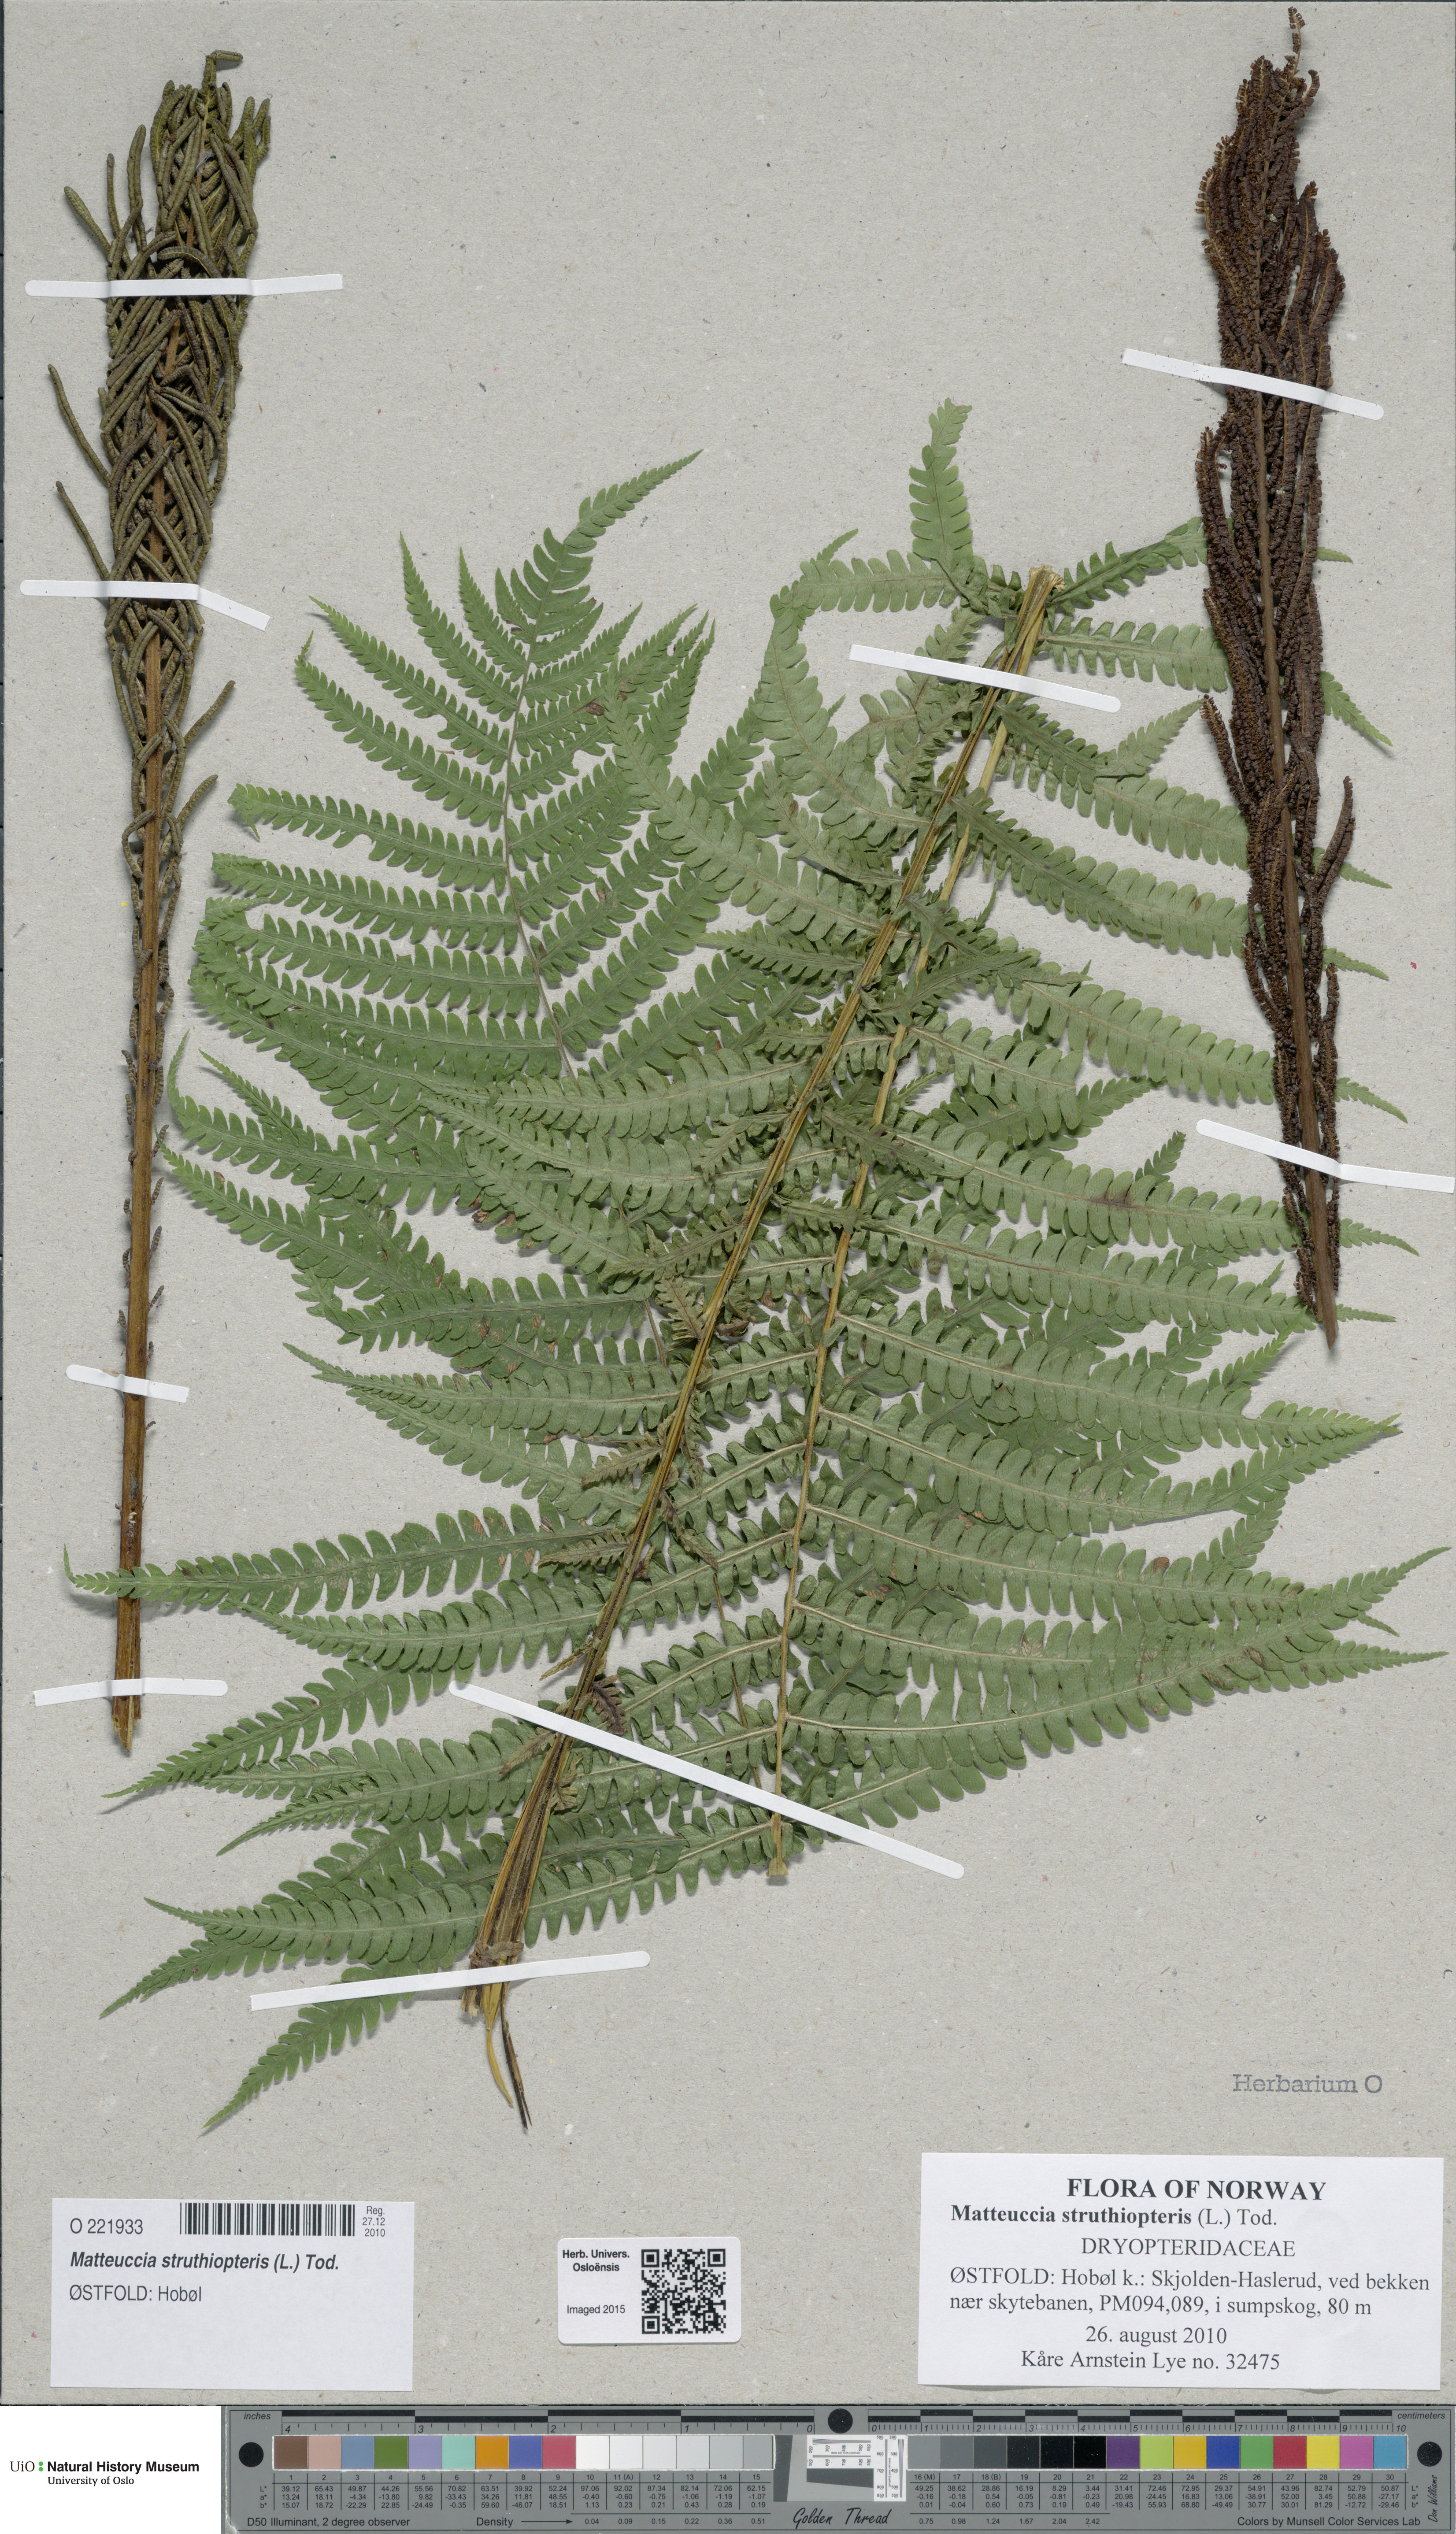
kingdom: Plantae
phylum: Tracheophyta
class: Polypodiopsida
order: Polypodiales
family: Onocleaceae
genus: Matteuccia
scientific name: Matteuccia struthiopteris
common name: Ostrich fern
